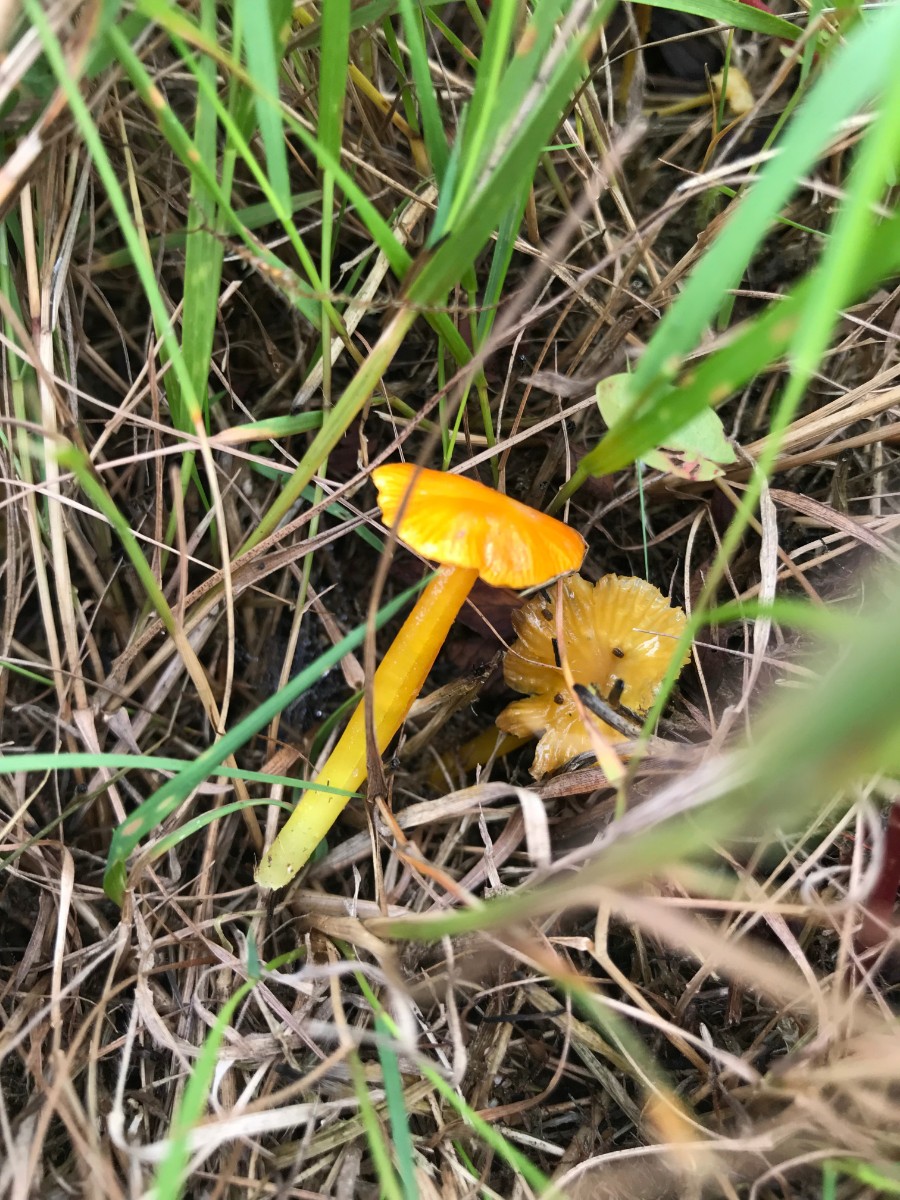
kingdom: Fungi
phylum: Basidiomycota
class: Agaricomycetes
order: Agaricales
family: Hygrophoraceae
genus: Hygrocybe
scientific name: Hygrocybe glutinipes
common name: slimstokket vokshat
